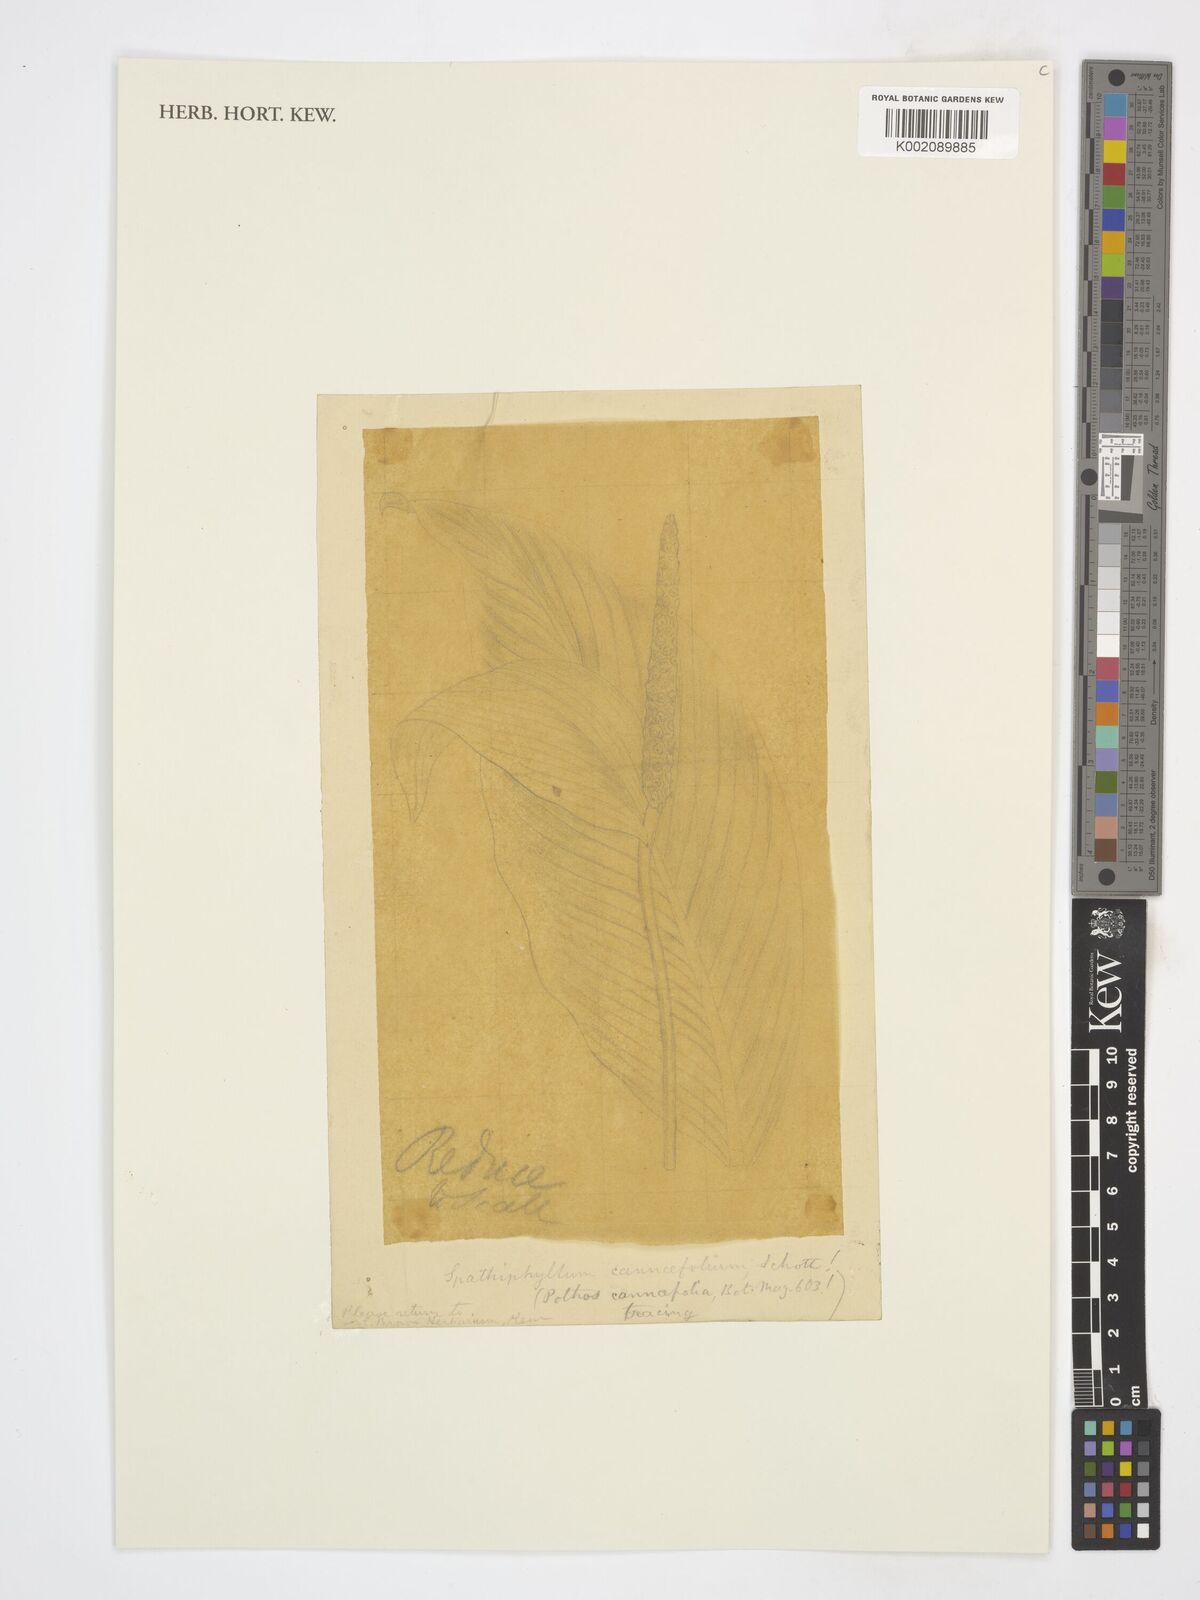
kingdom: Plantae
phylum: Tracheophyta
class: Liliopsida
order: Alismatales
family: Araceae
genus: Spathiphyllum
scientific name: Spathiphyllum cannifolium
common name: Spatheflower
